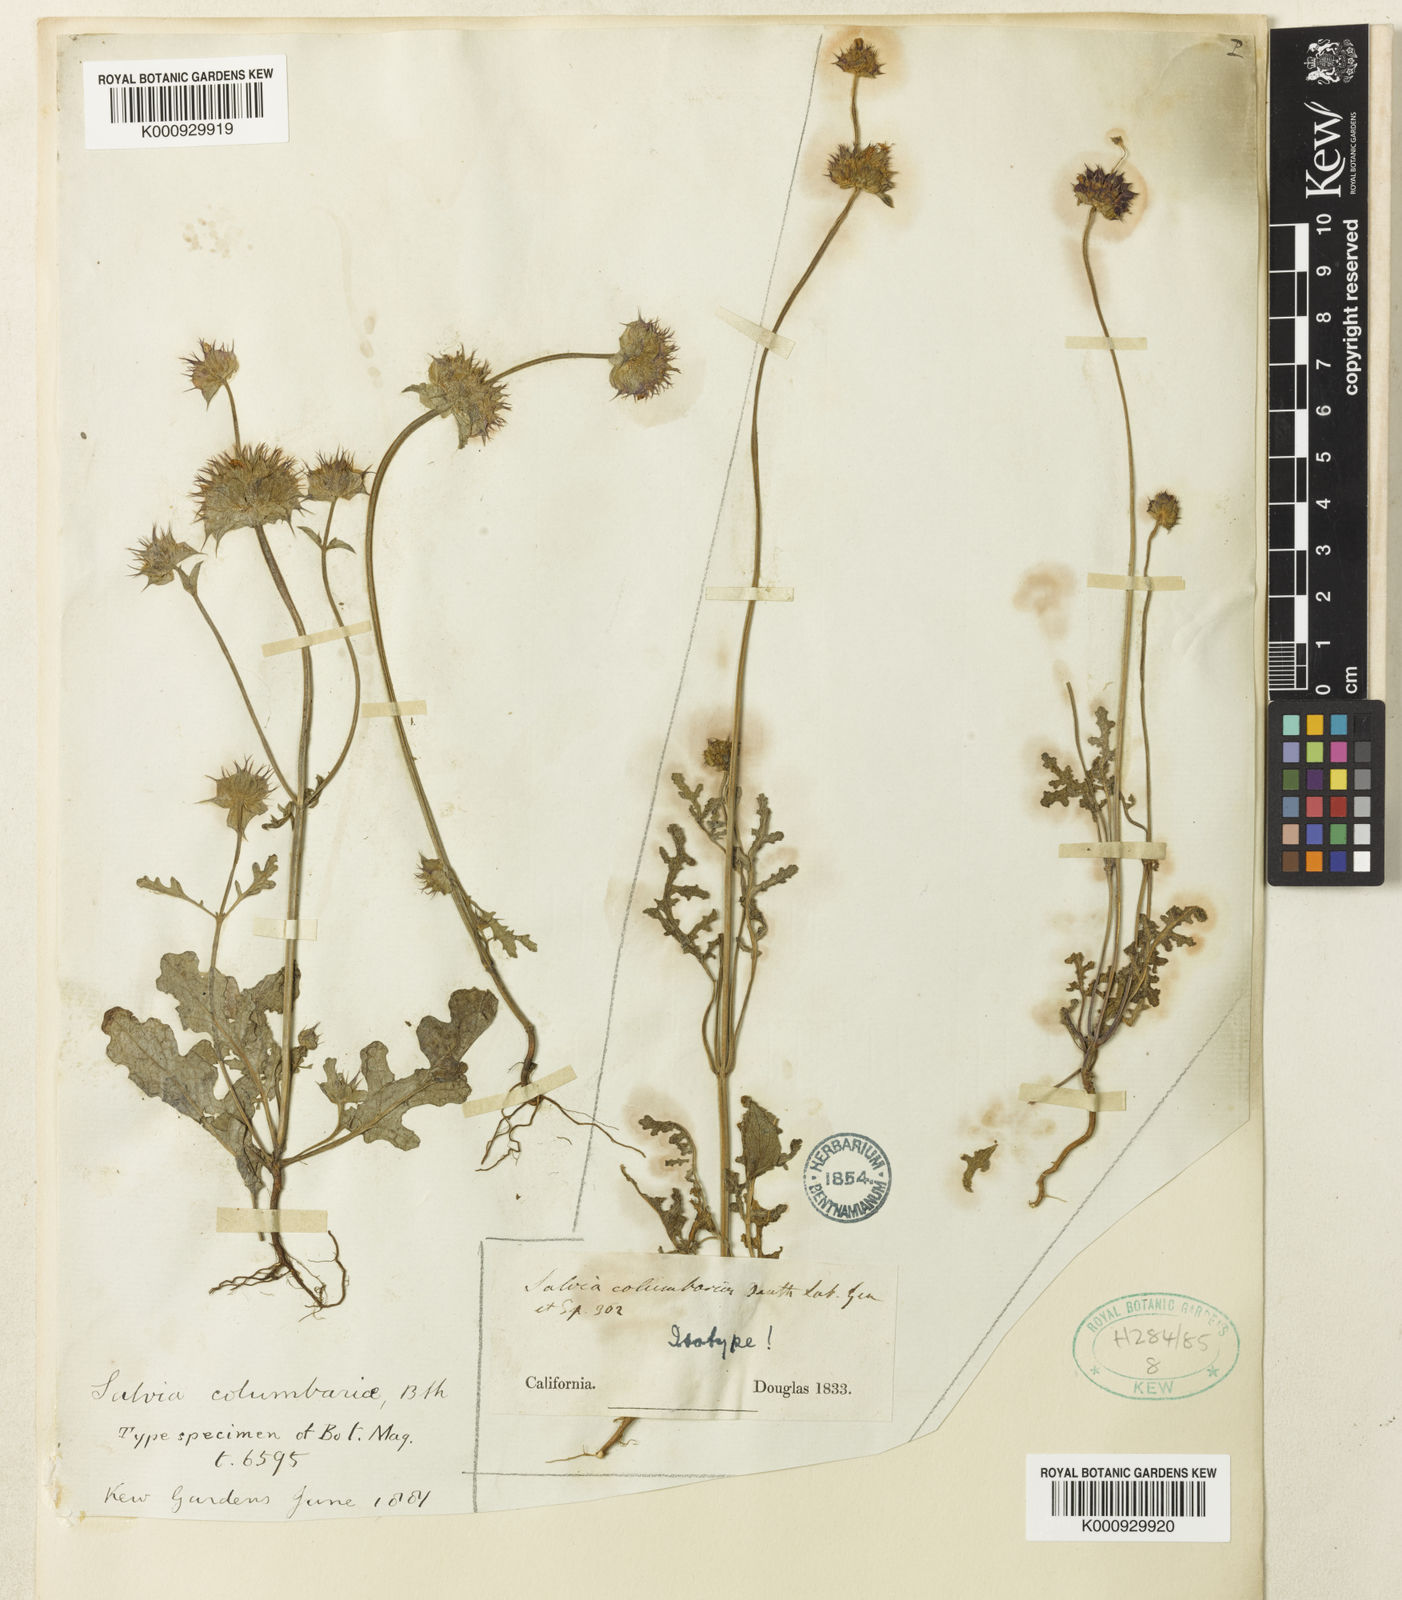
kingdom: Plantae
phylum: Tracheophyta
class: Magnoliopsida
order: Lamiales
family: Lamiaceae
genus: Salvia
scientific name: Salvia columbariae
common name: Chia
